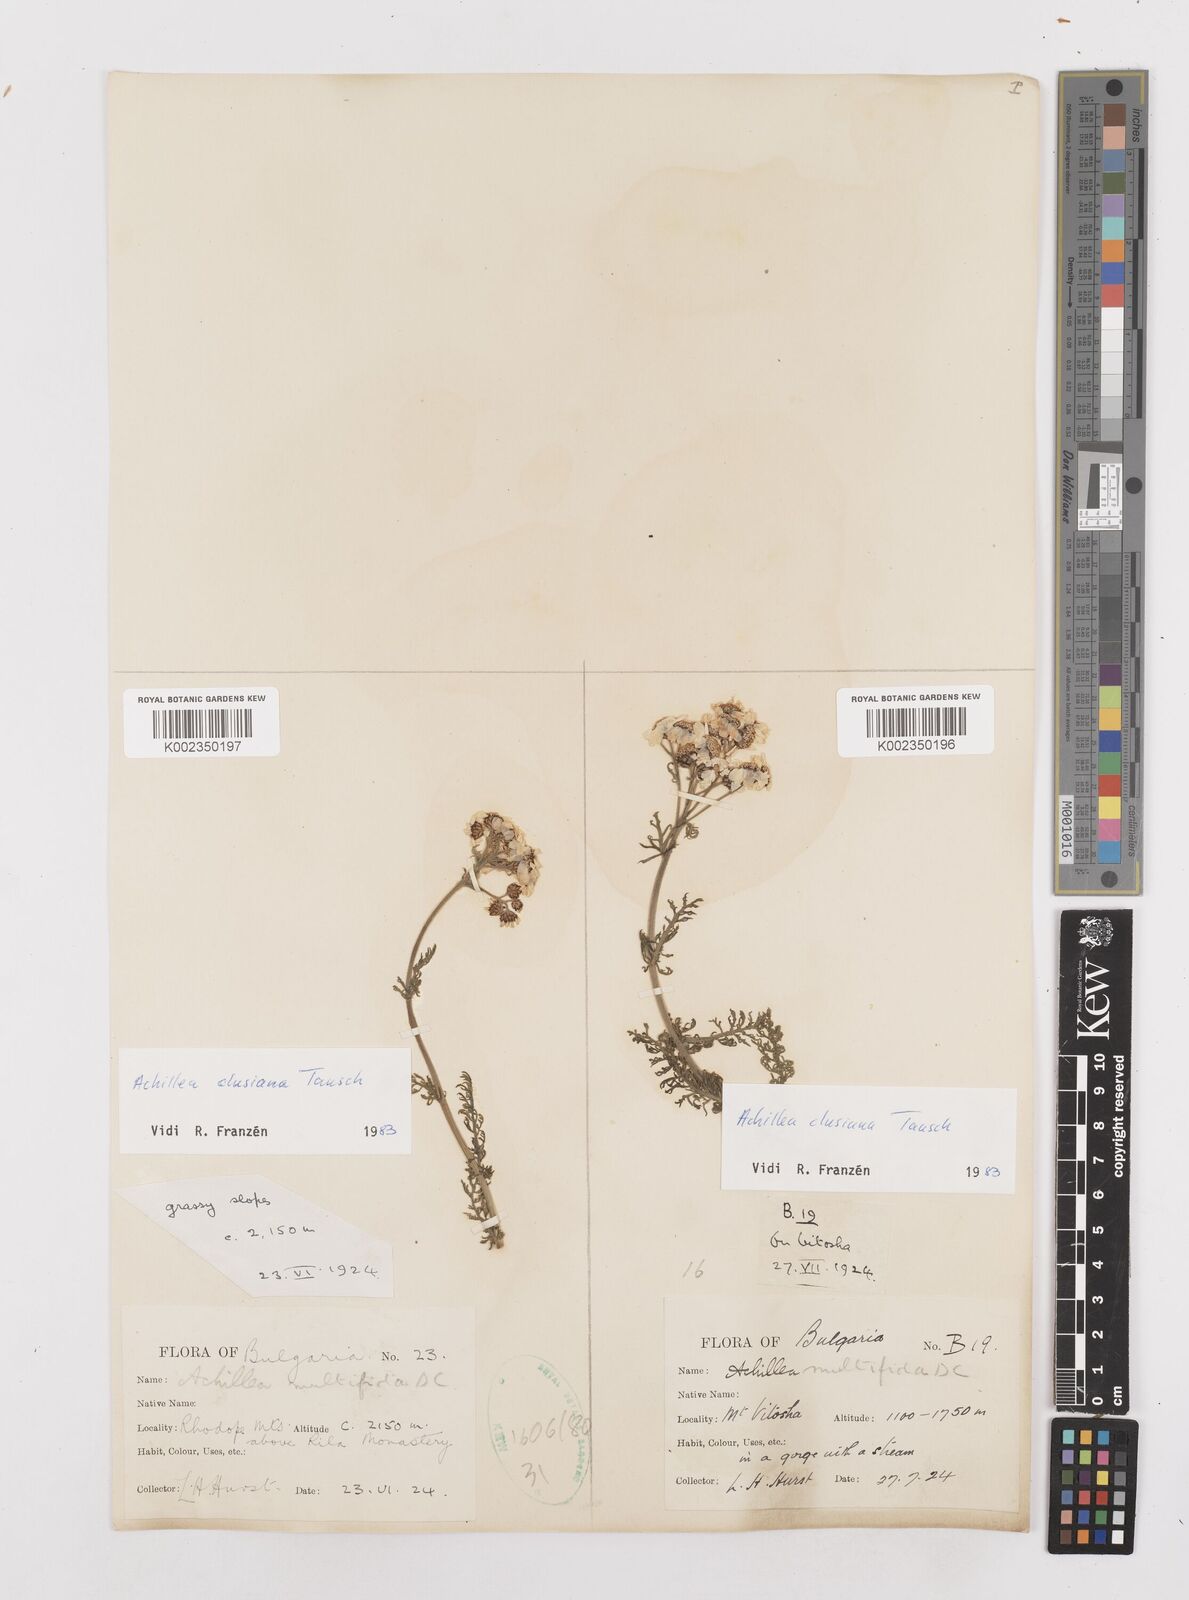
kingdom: Plantae
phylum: Tracheophyta
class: Magnoliopsida
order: Asterales
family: Asteraceae
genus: Achillea
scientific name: Achillea clusiana
